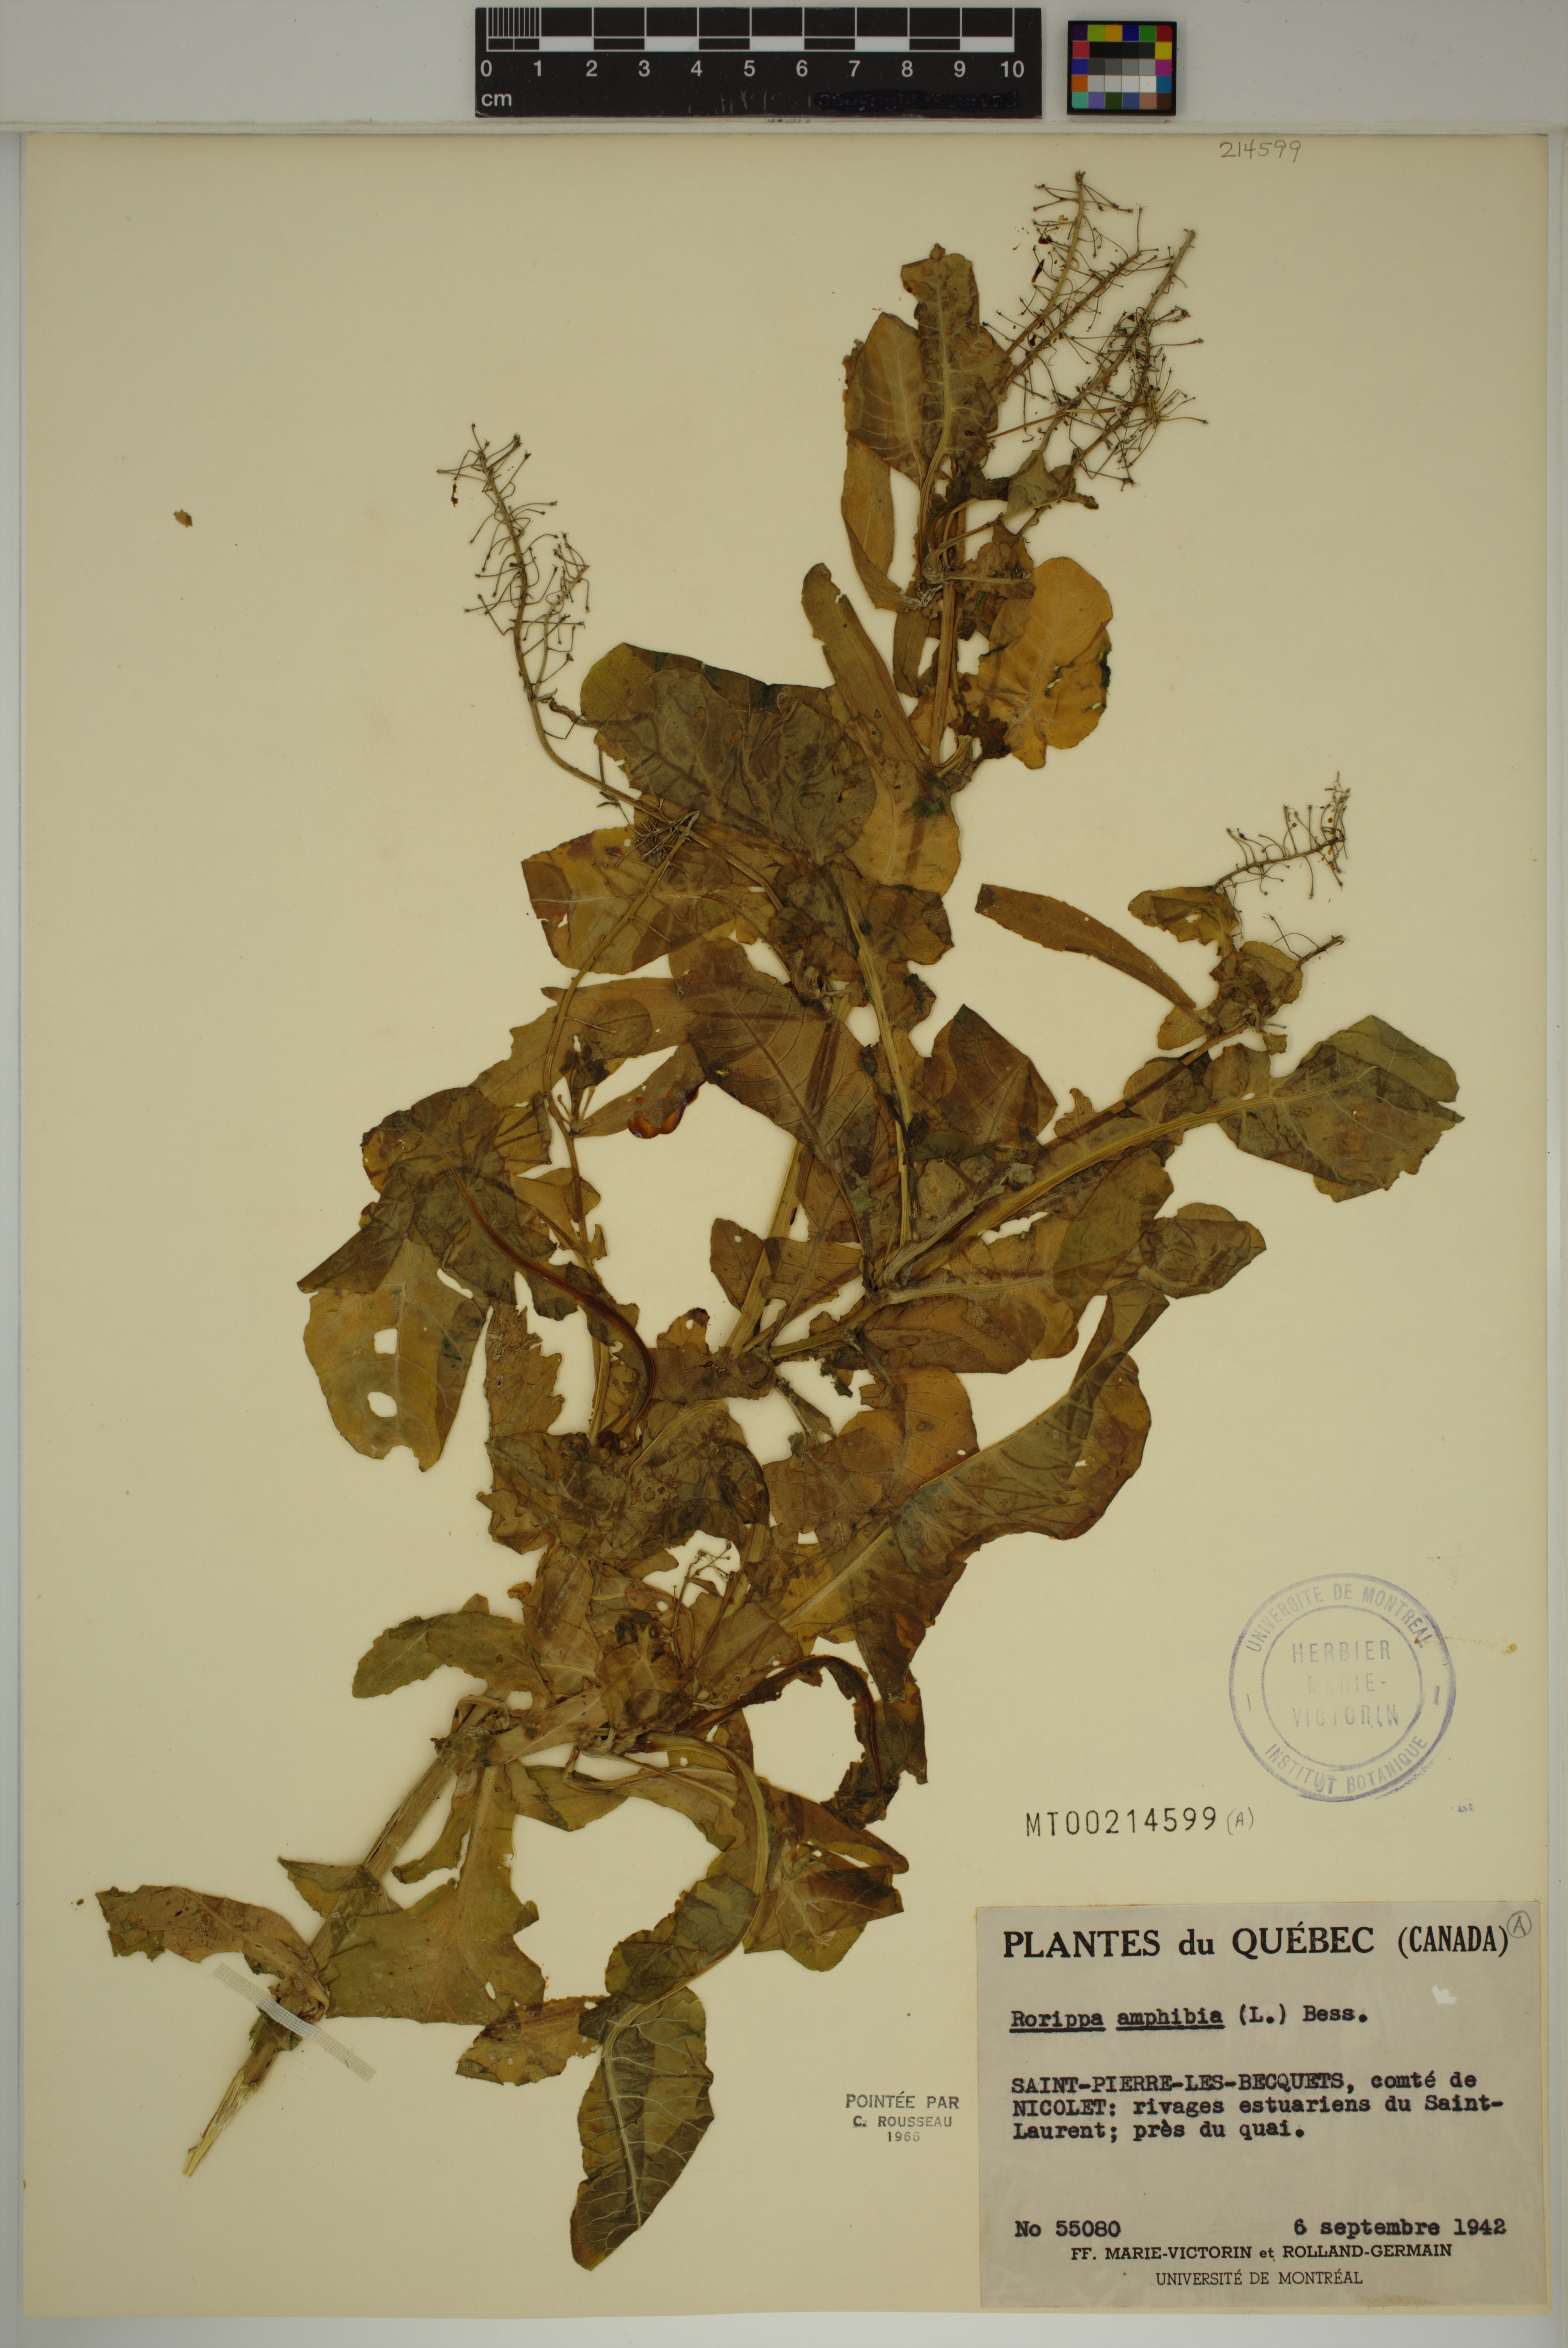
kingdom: Plantae
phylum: Tracheophyta
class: Magnoliopsida
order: Brassicales
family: Brassicaceae
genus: Rorippa
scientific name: Rorippa amphibia
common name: Great yellow-cress
